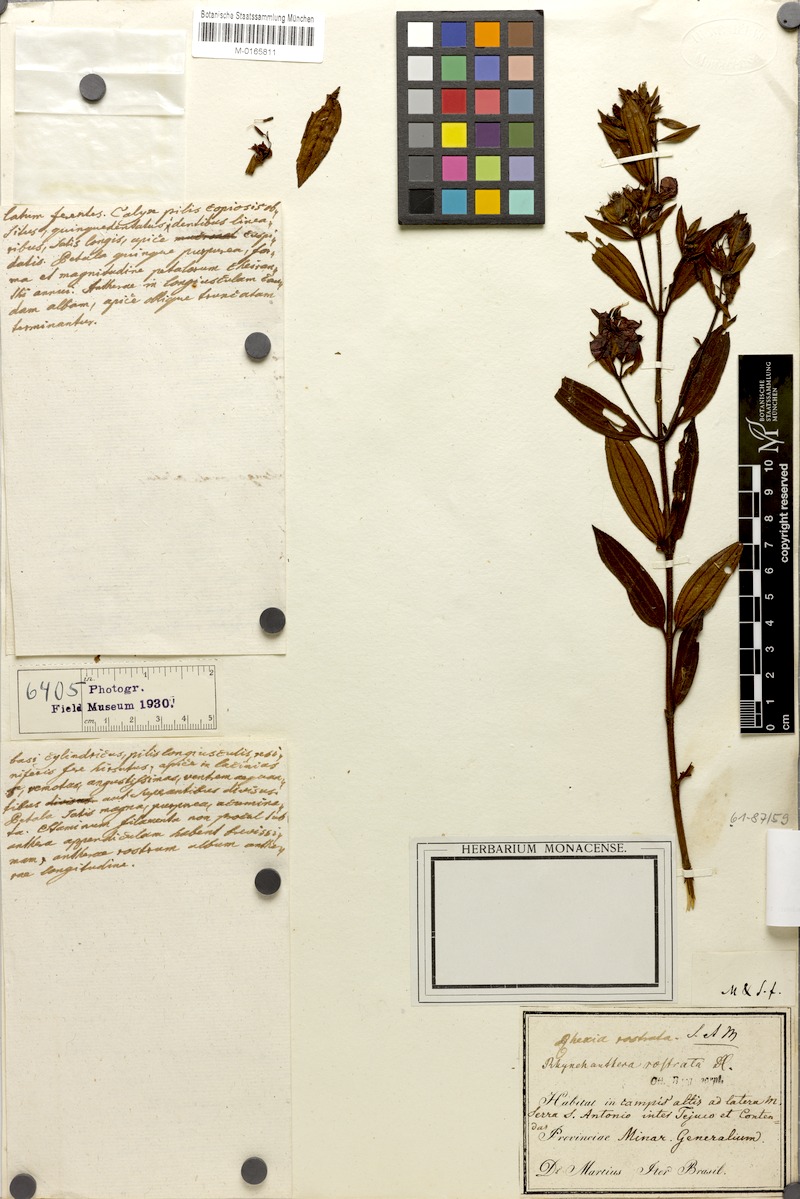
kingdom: Plantae
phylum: Tracheophyta
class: Magnoliopsida
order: Myrtales
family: Melastomataceae
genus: Rhynchanthera
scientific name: Rhynchanthera grandiflora
